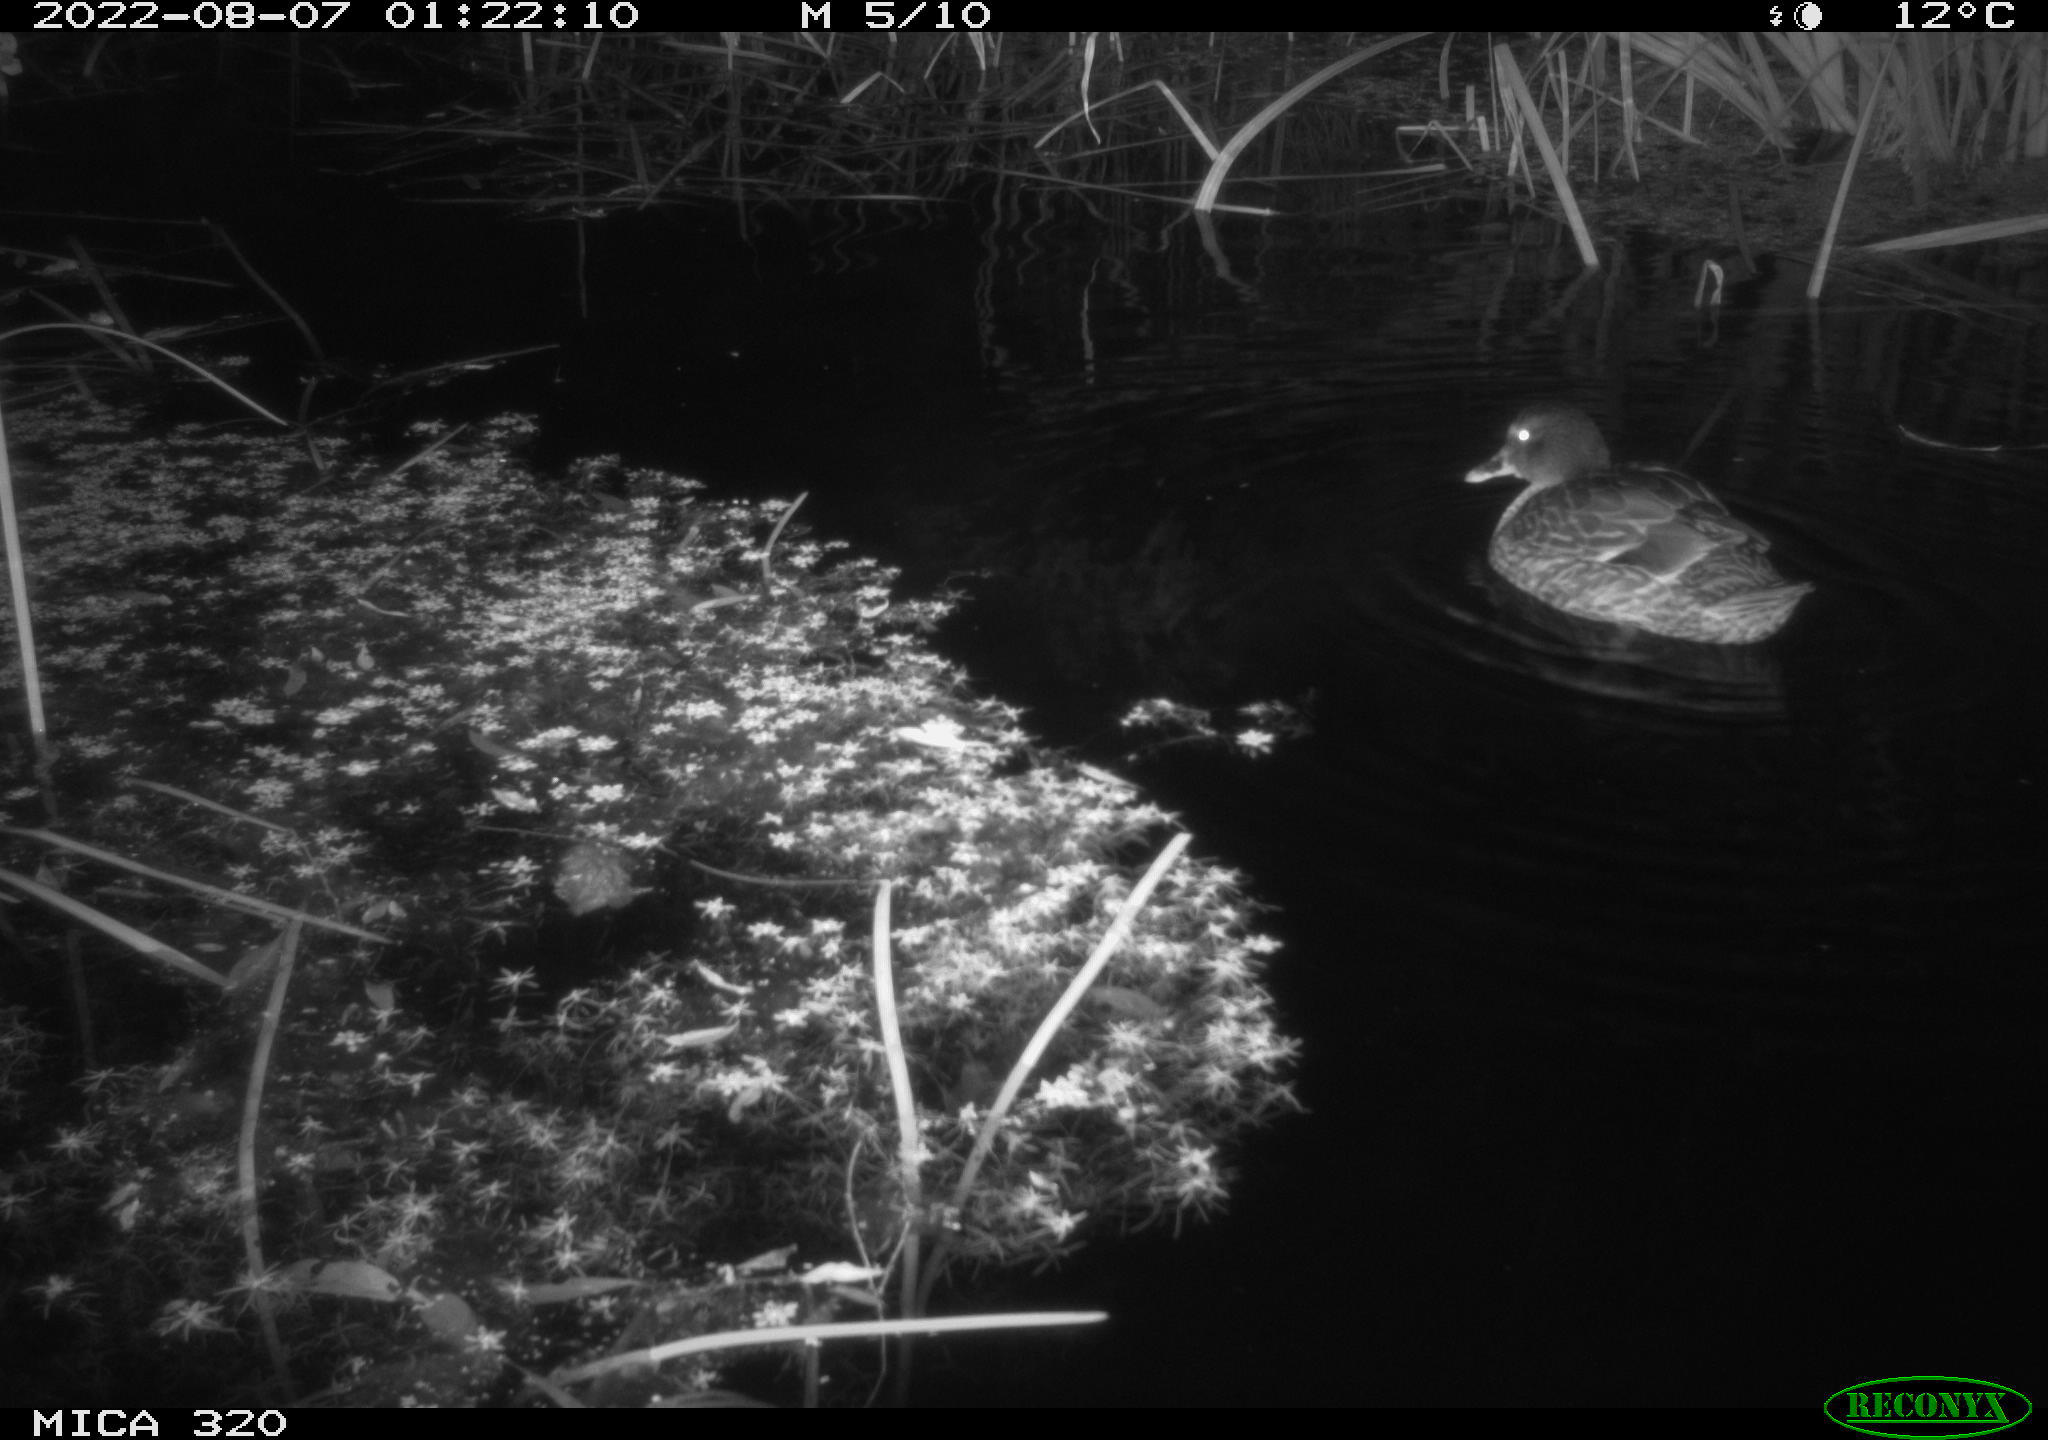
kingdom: Animalia
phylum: Chordata
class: Aves
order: Anseriformes
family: Anatidae
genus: Anas
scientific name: Anas platyrhynchos
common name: Mallard
